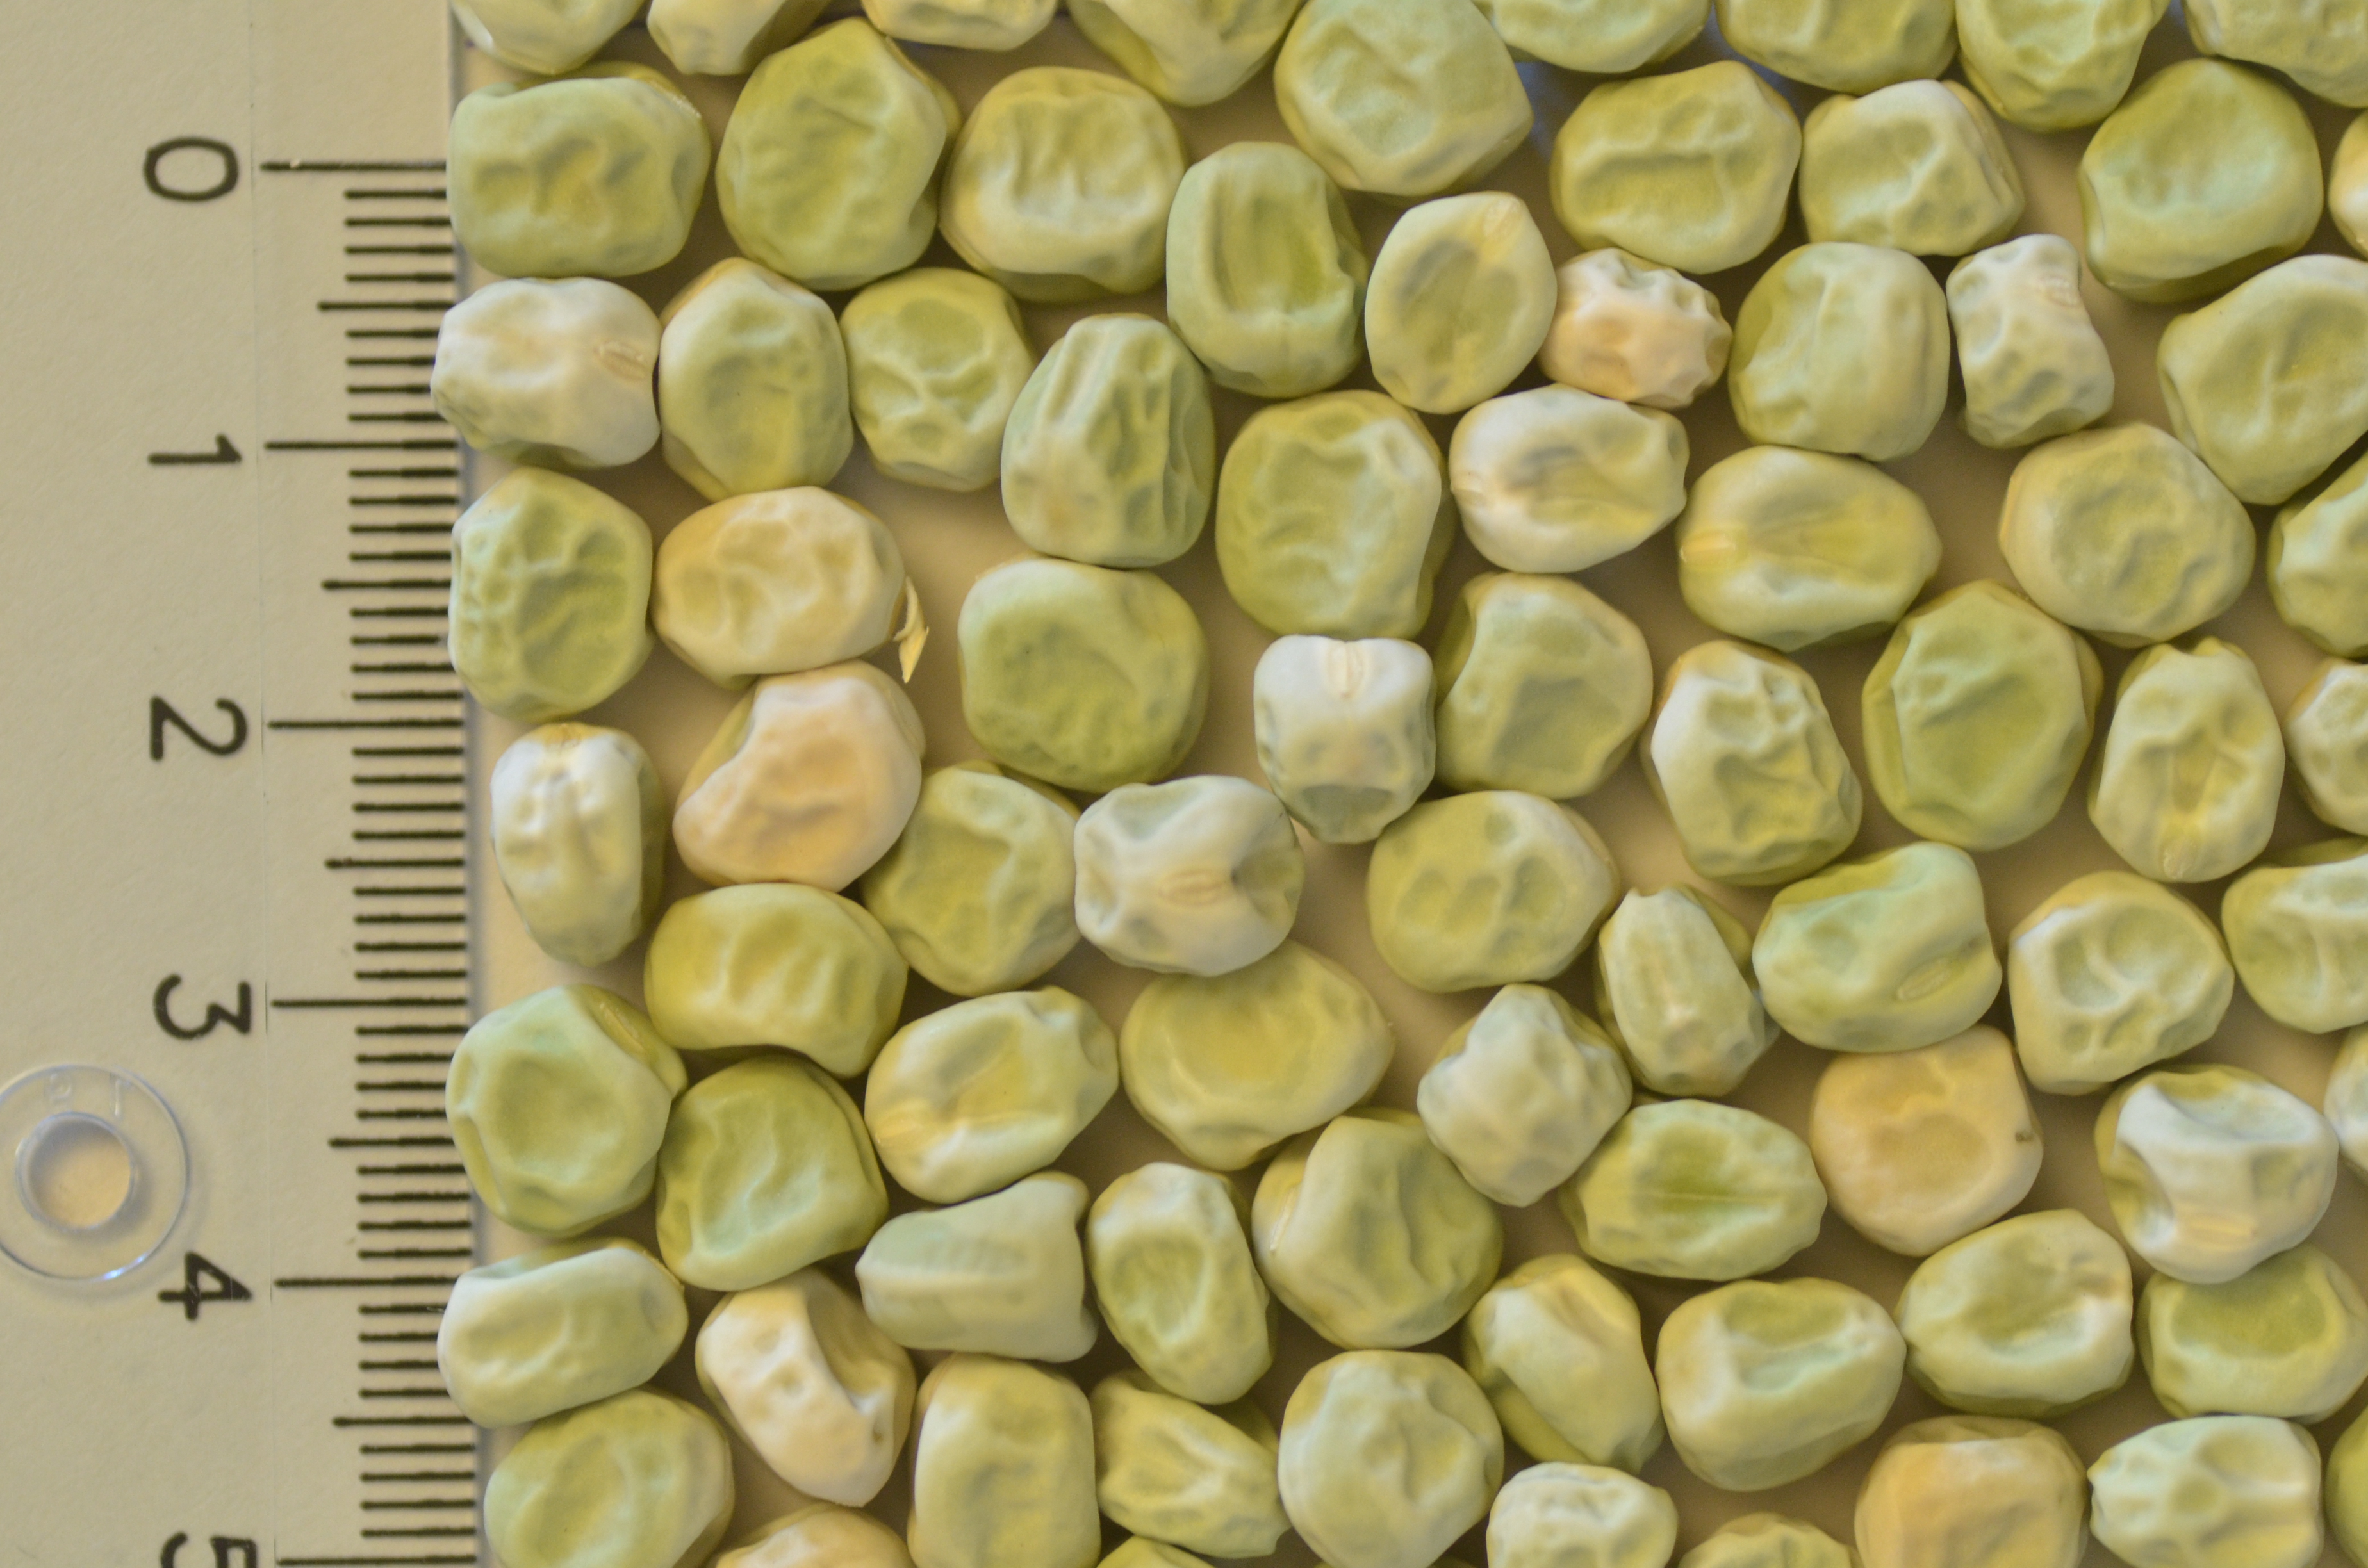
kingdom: Plantae
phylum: Tracheophyta
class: Magnoliopsida
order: Fabales
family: Fabaceae
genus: Lathyrus
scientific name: Lathyrus oleraceus
